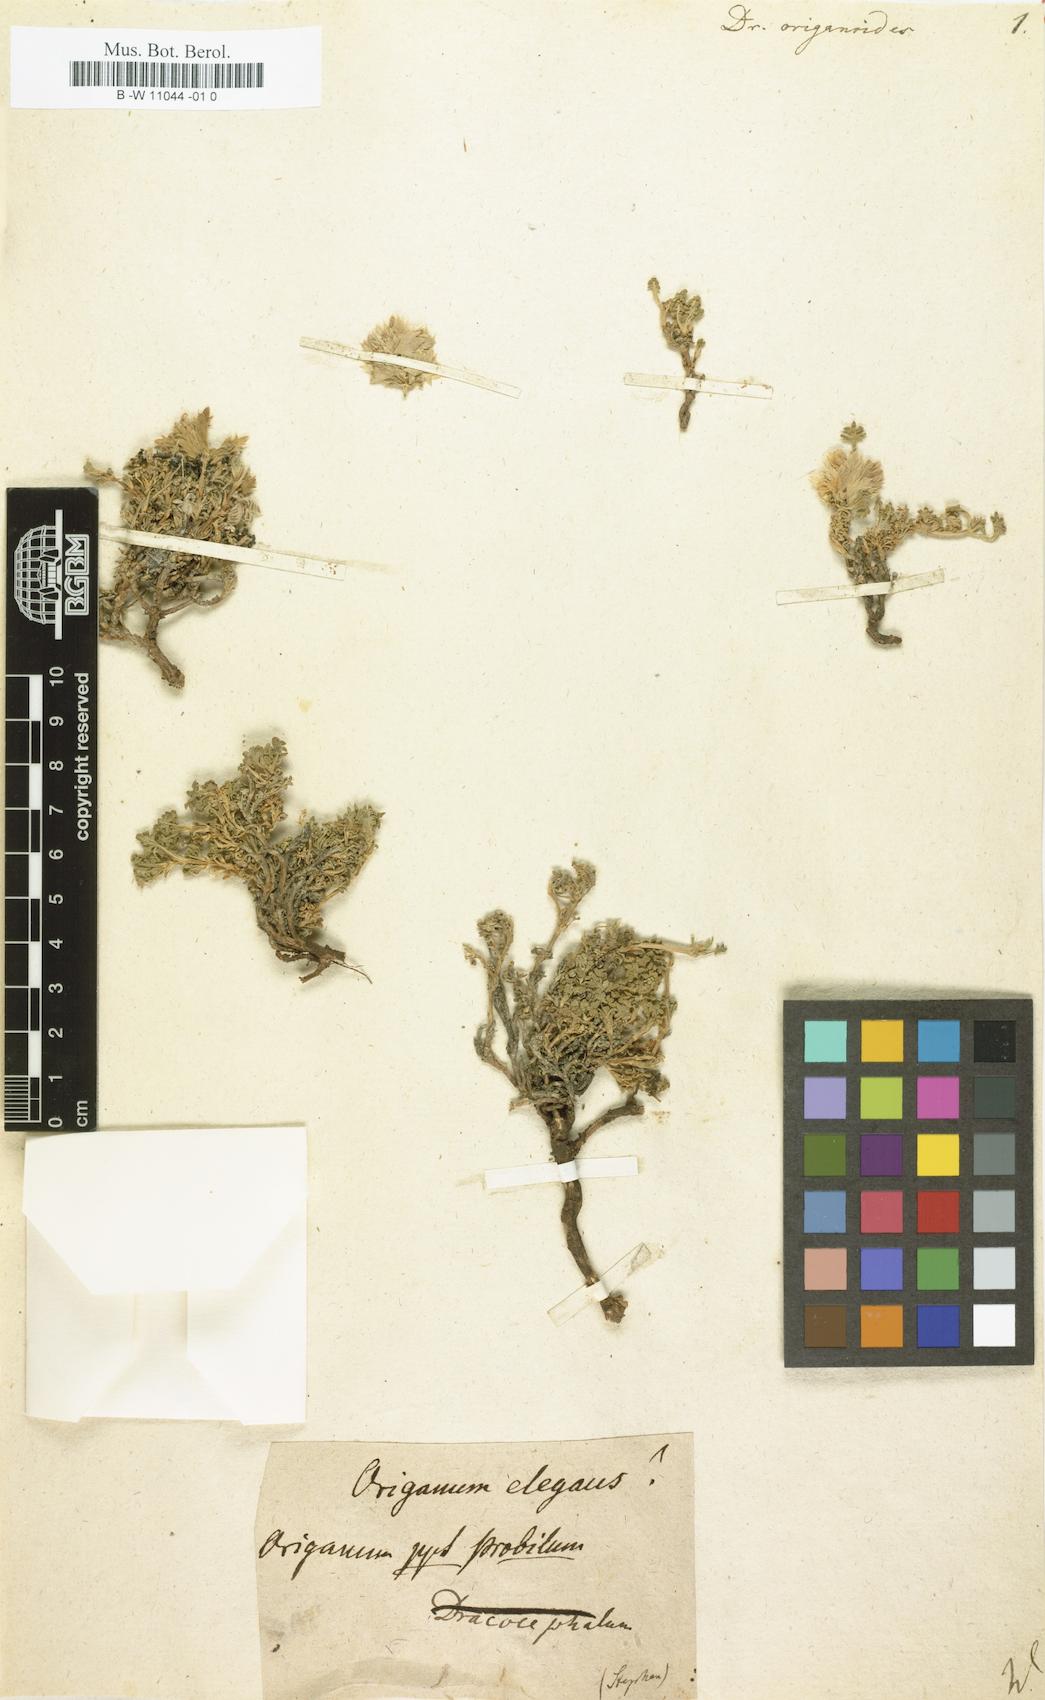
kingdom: Plantae
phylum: Tracheophyta
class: Magnoliopsida
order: Lamiales
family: Lamiaceae
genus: Dracocephalum
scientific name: Dracocephalum origanoides
